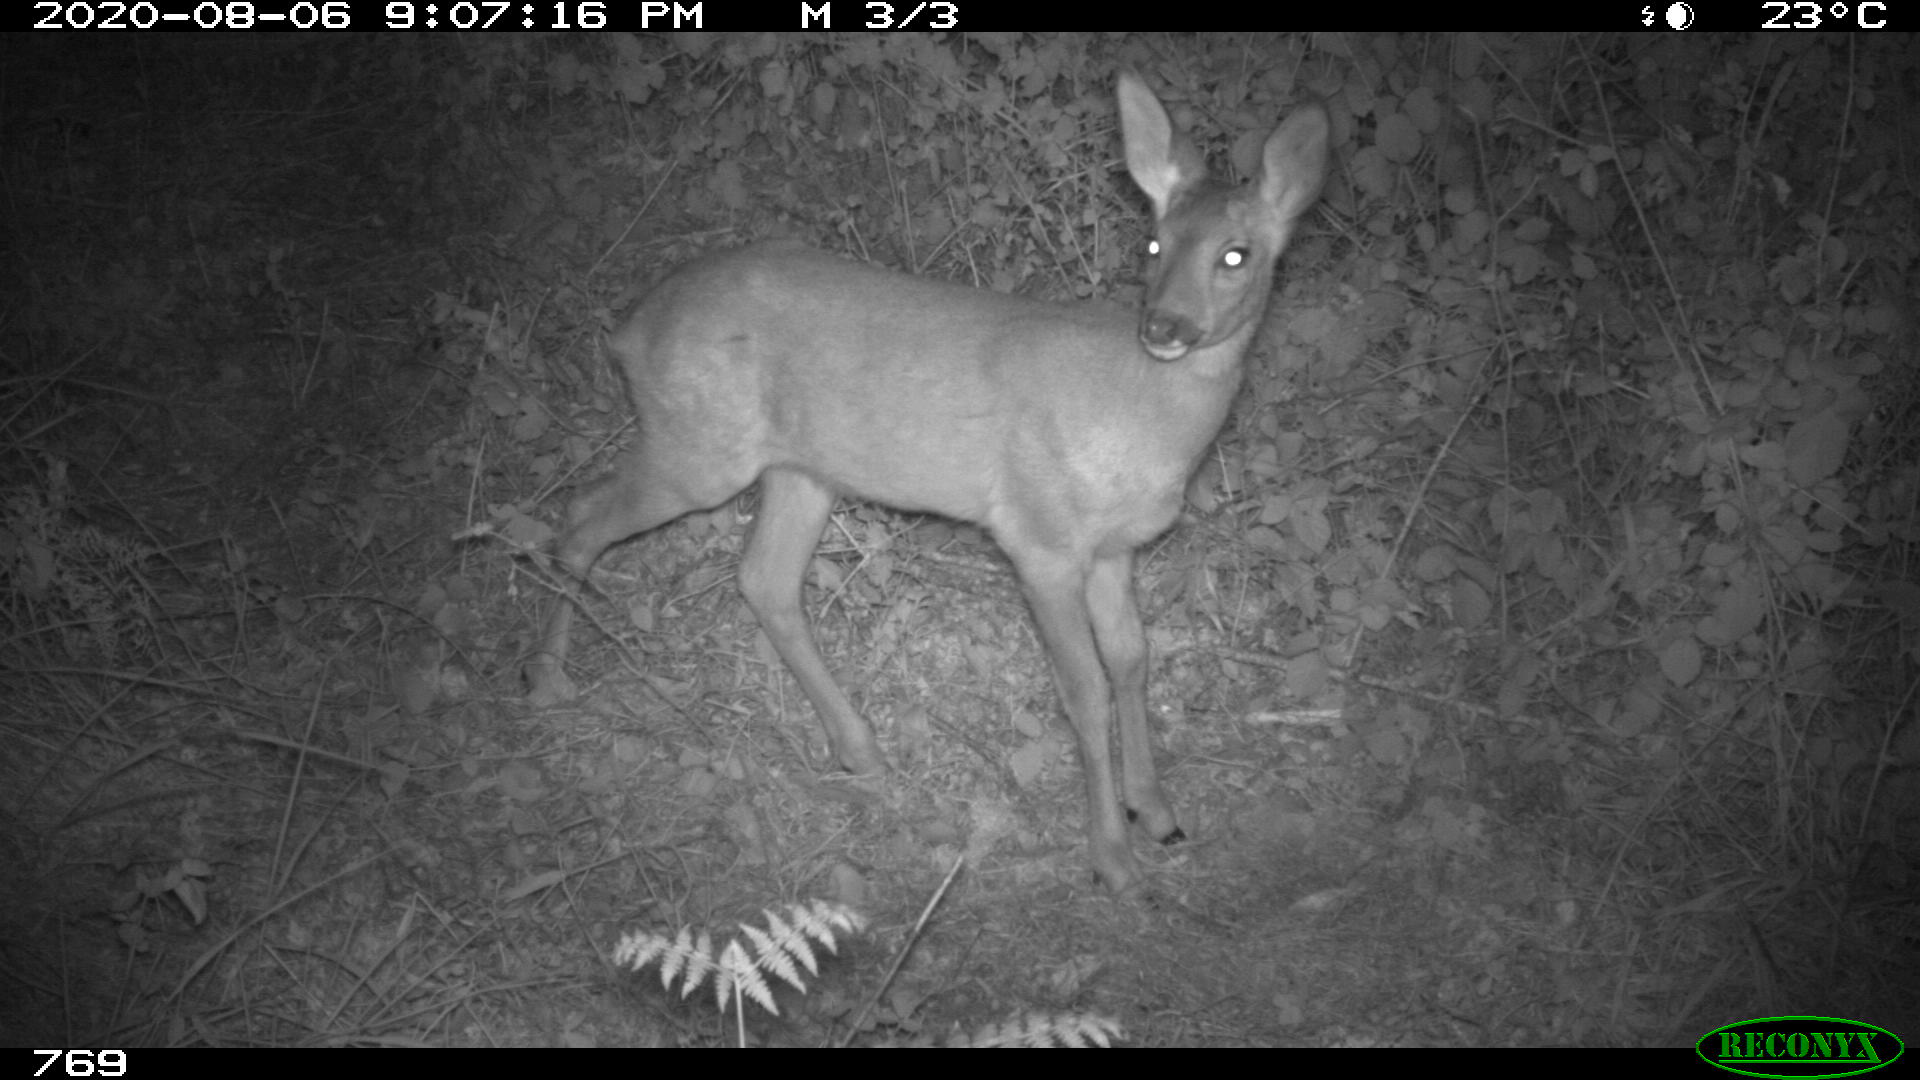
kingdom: Animalia
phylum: Chordata
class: Mammalia
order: Artiodactyla
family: Cervidae
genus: Capreolus
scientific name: Capreolus capreolus
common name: Western roe deer
